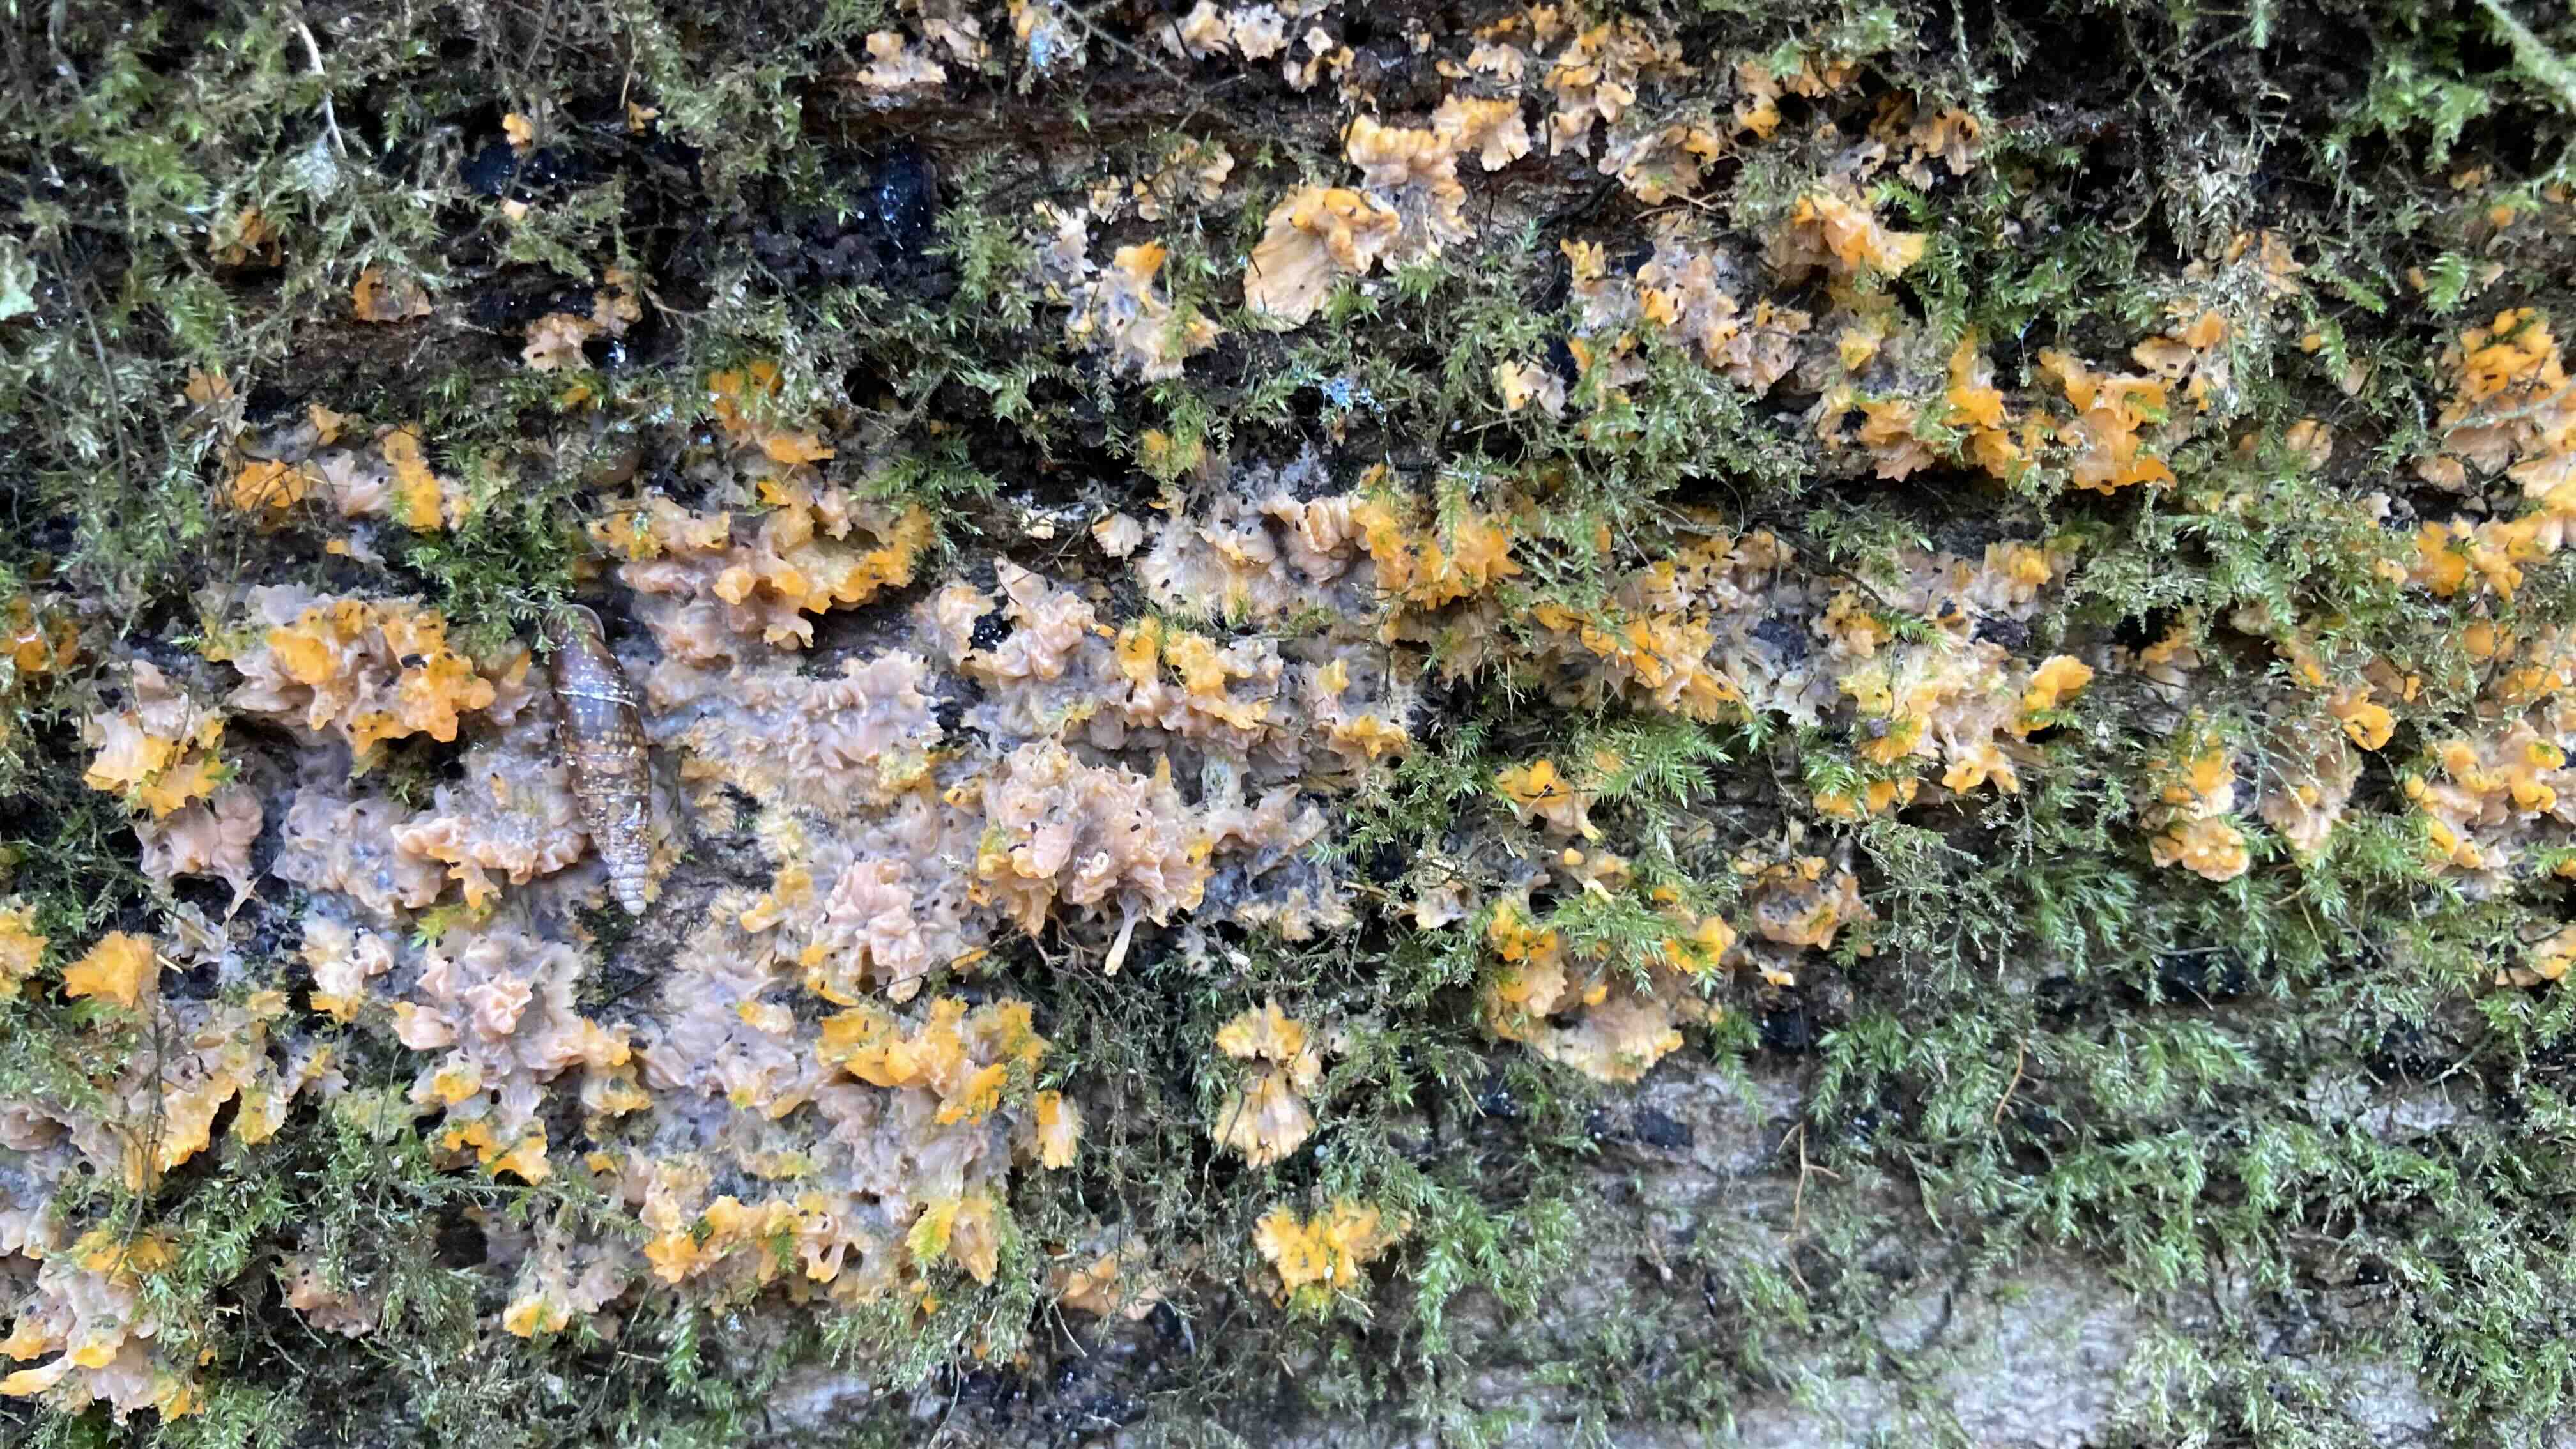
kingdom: Fungi
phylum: Basidiomycota
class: Agaricomycetes
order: Polyporales
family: Meruliaceae
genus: Phlebia
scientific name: Phlebia radiata
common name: stråle-åresvamp
